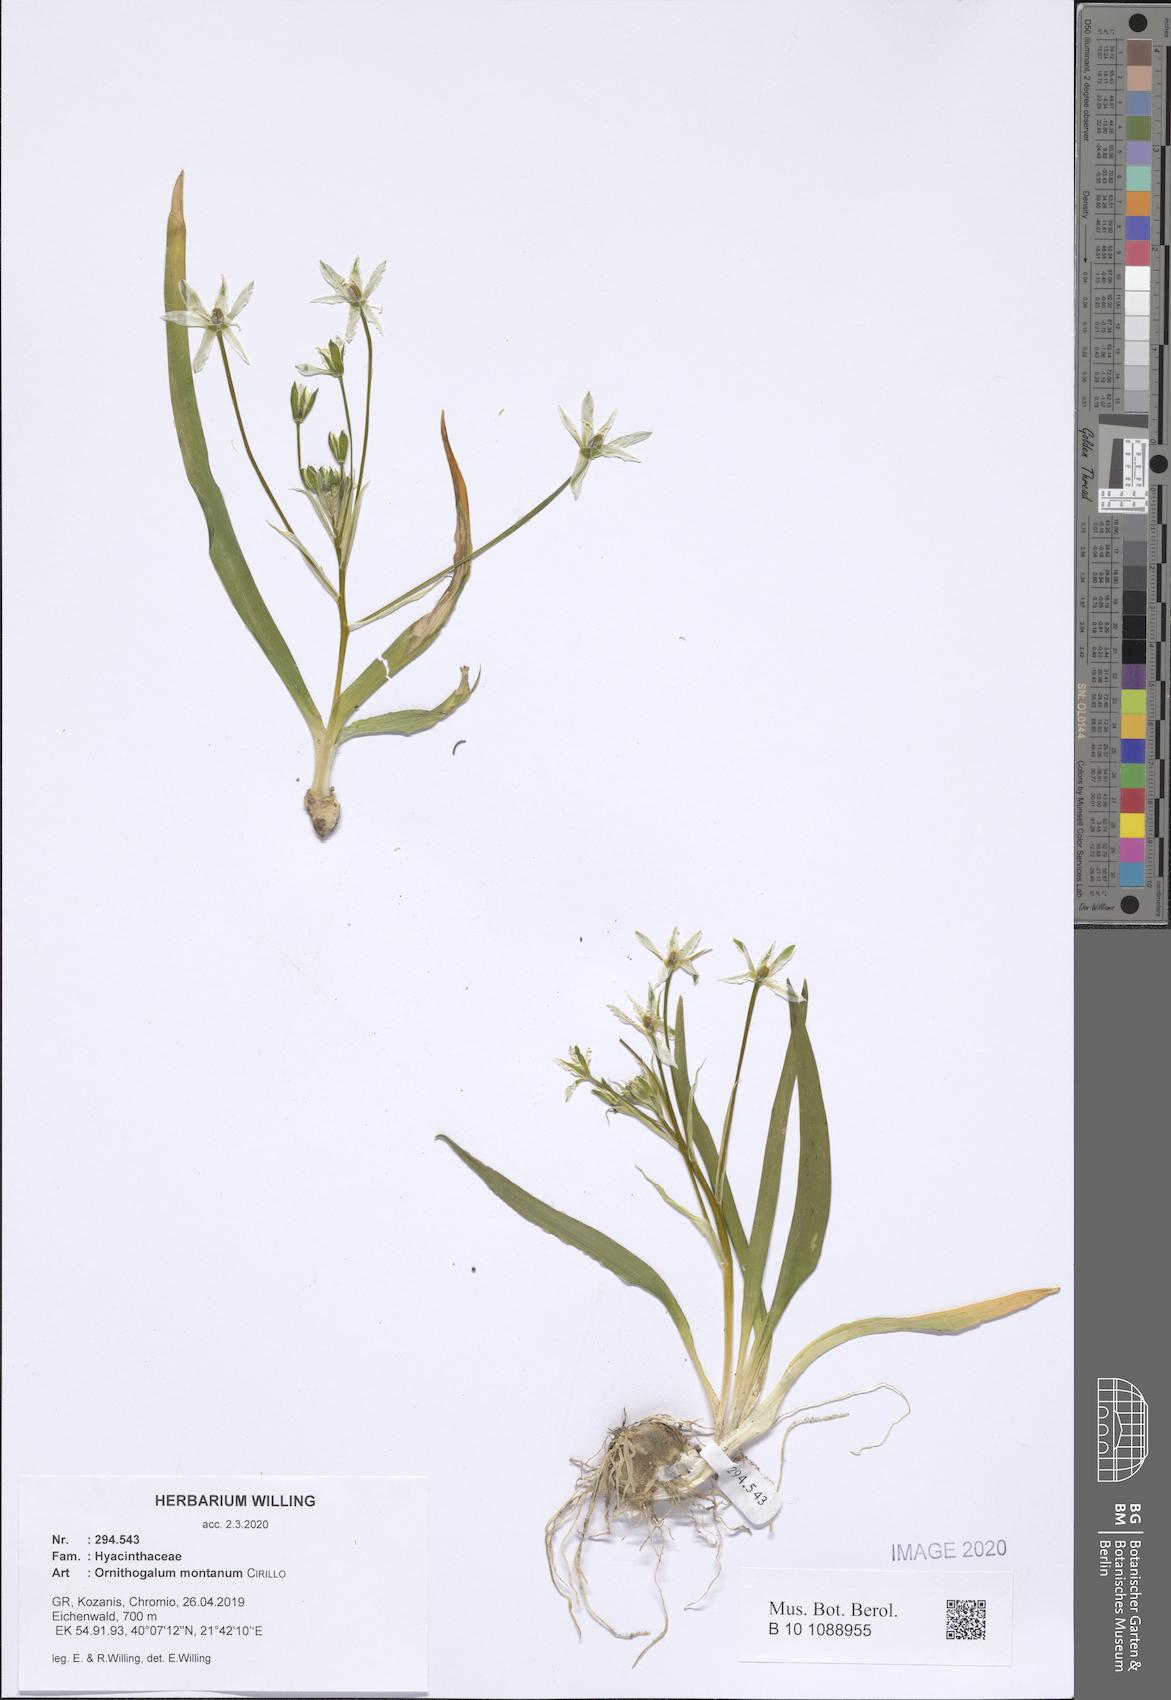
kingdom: Plantae
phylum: Tracheophyta
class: Liliopsida
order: Asparagales
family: Asparagaceae
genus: Ornithogalum
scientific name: Ornithogalum montanum
